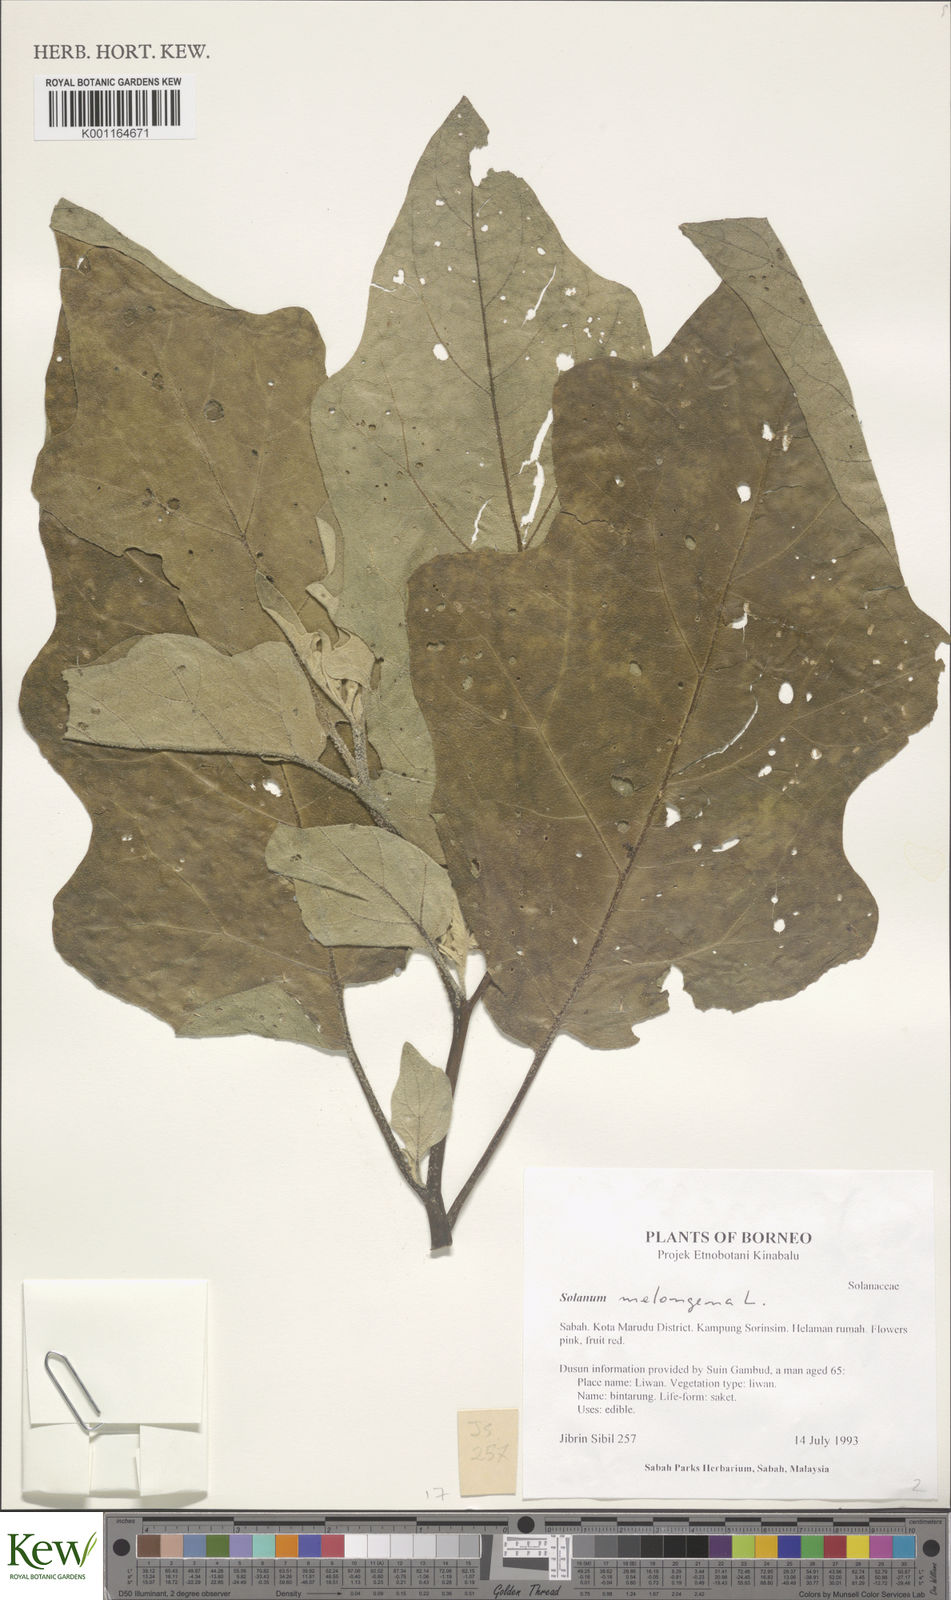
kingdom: Plantae
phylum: Tracheophyta
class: Magnoliopsida
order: Solanales
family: Solanaceae
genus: Solanum
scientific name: Solanum melongena
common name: Eggplant
